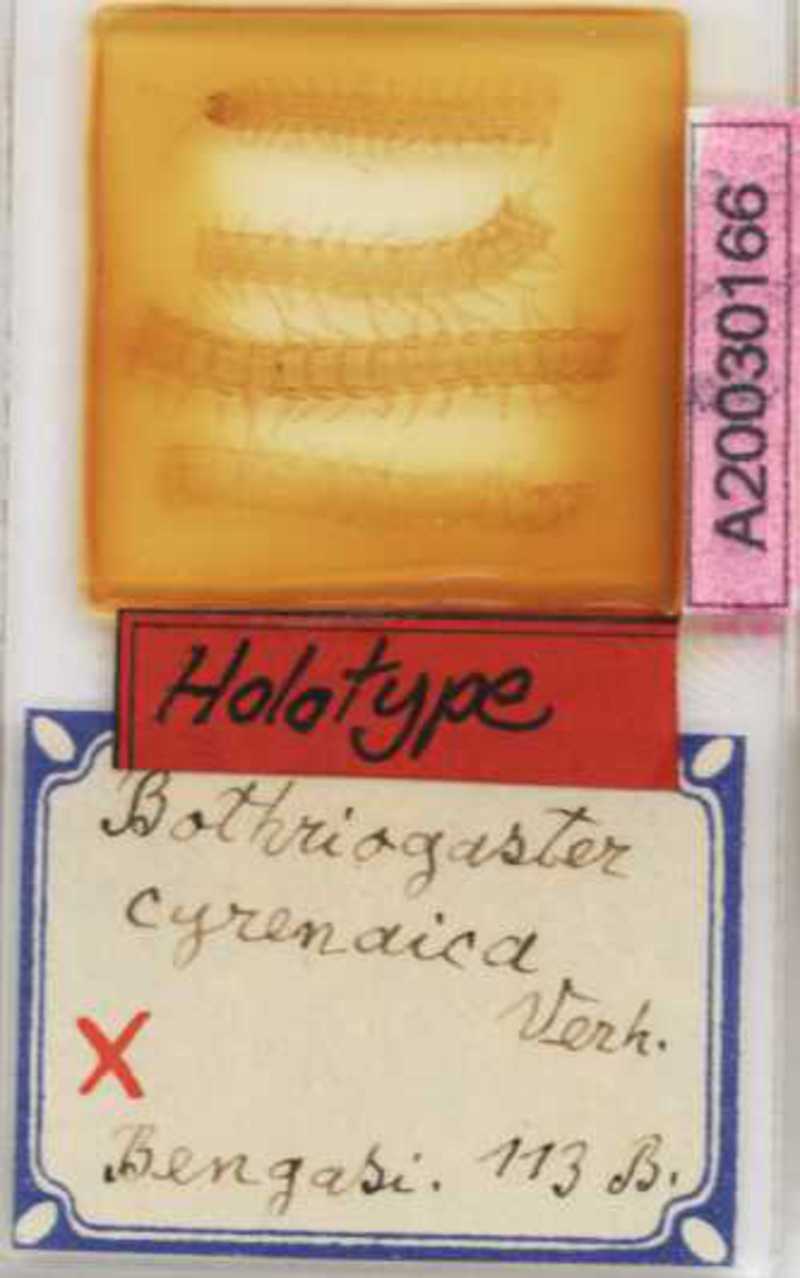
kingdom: Animalia
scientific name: Animalia
